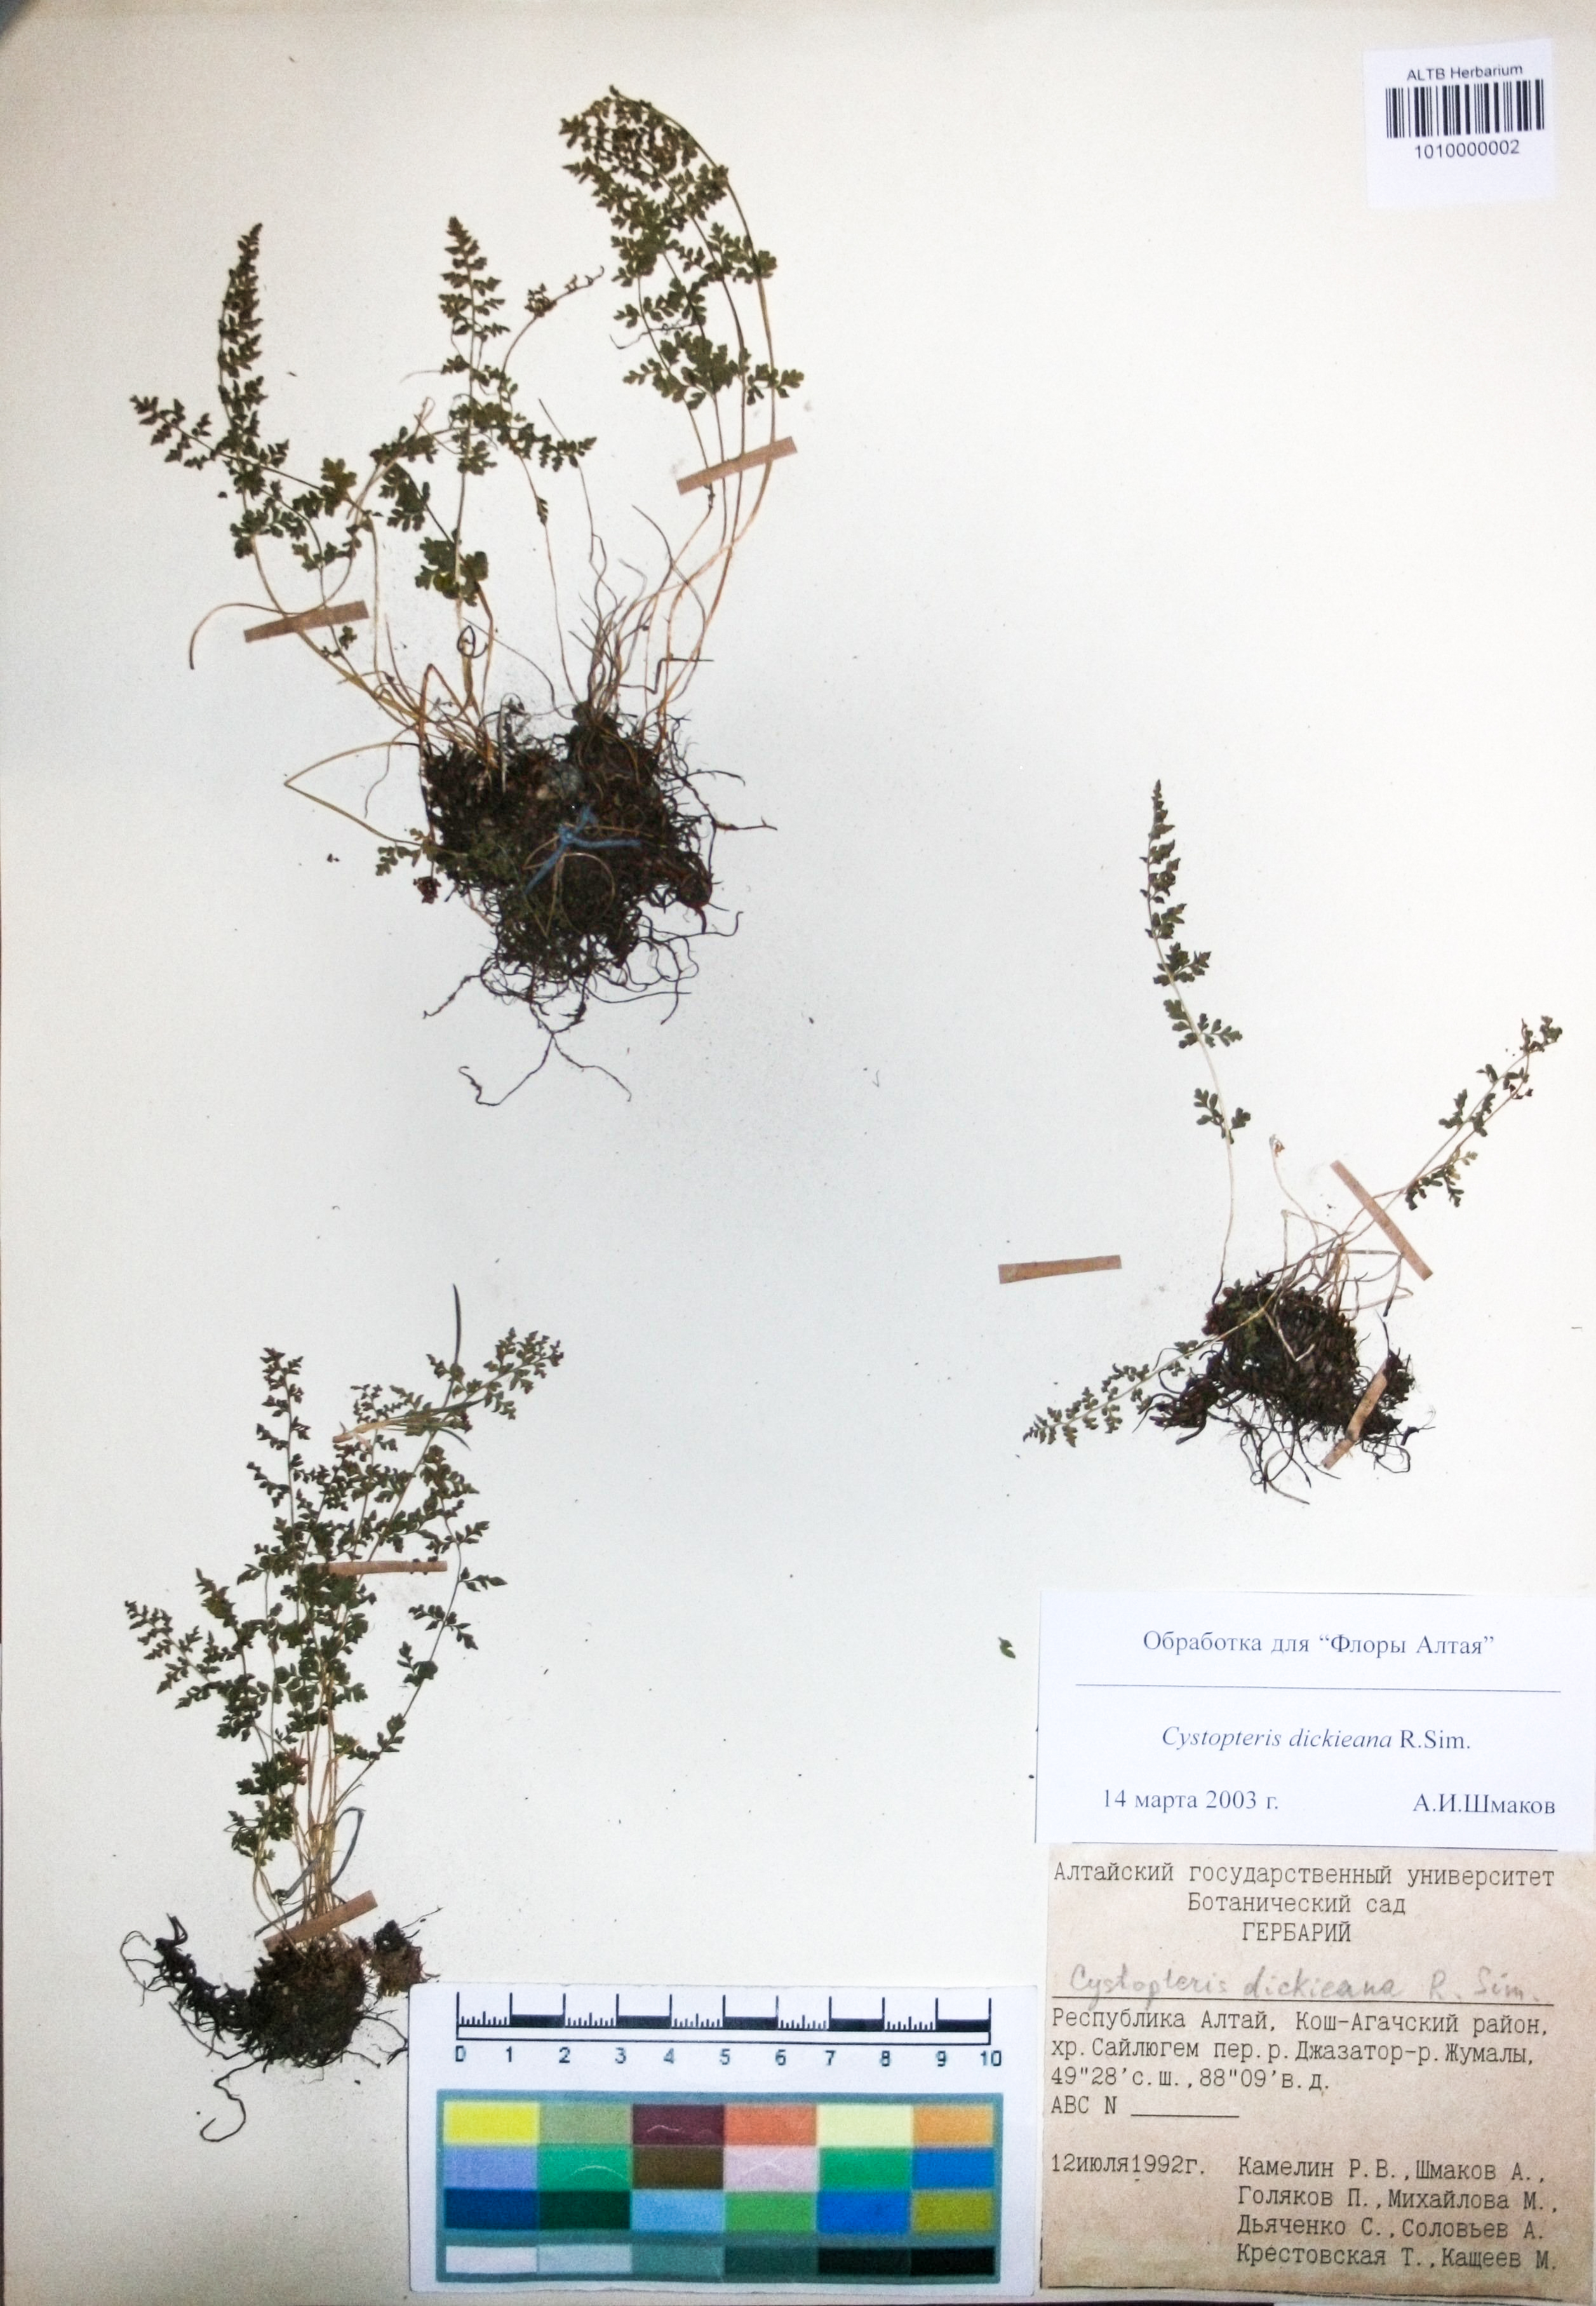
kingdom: Plantae
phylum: Tracheophyta
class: Polypodiopsida
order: Polypodiales
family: Cystopteridaceae
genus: Cystopteris
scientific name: Cystopteris dickieana
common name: Dickie's bladder-fern
